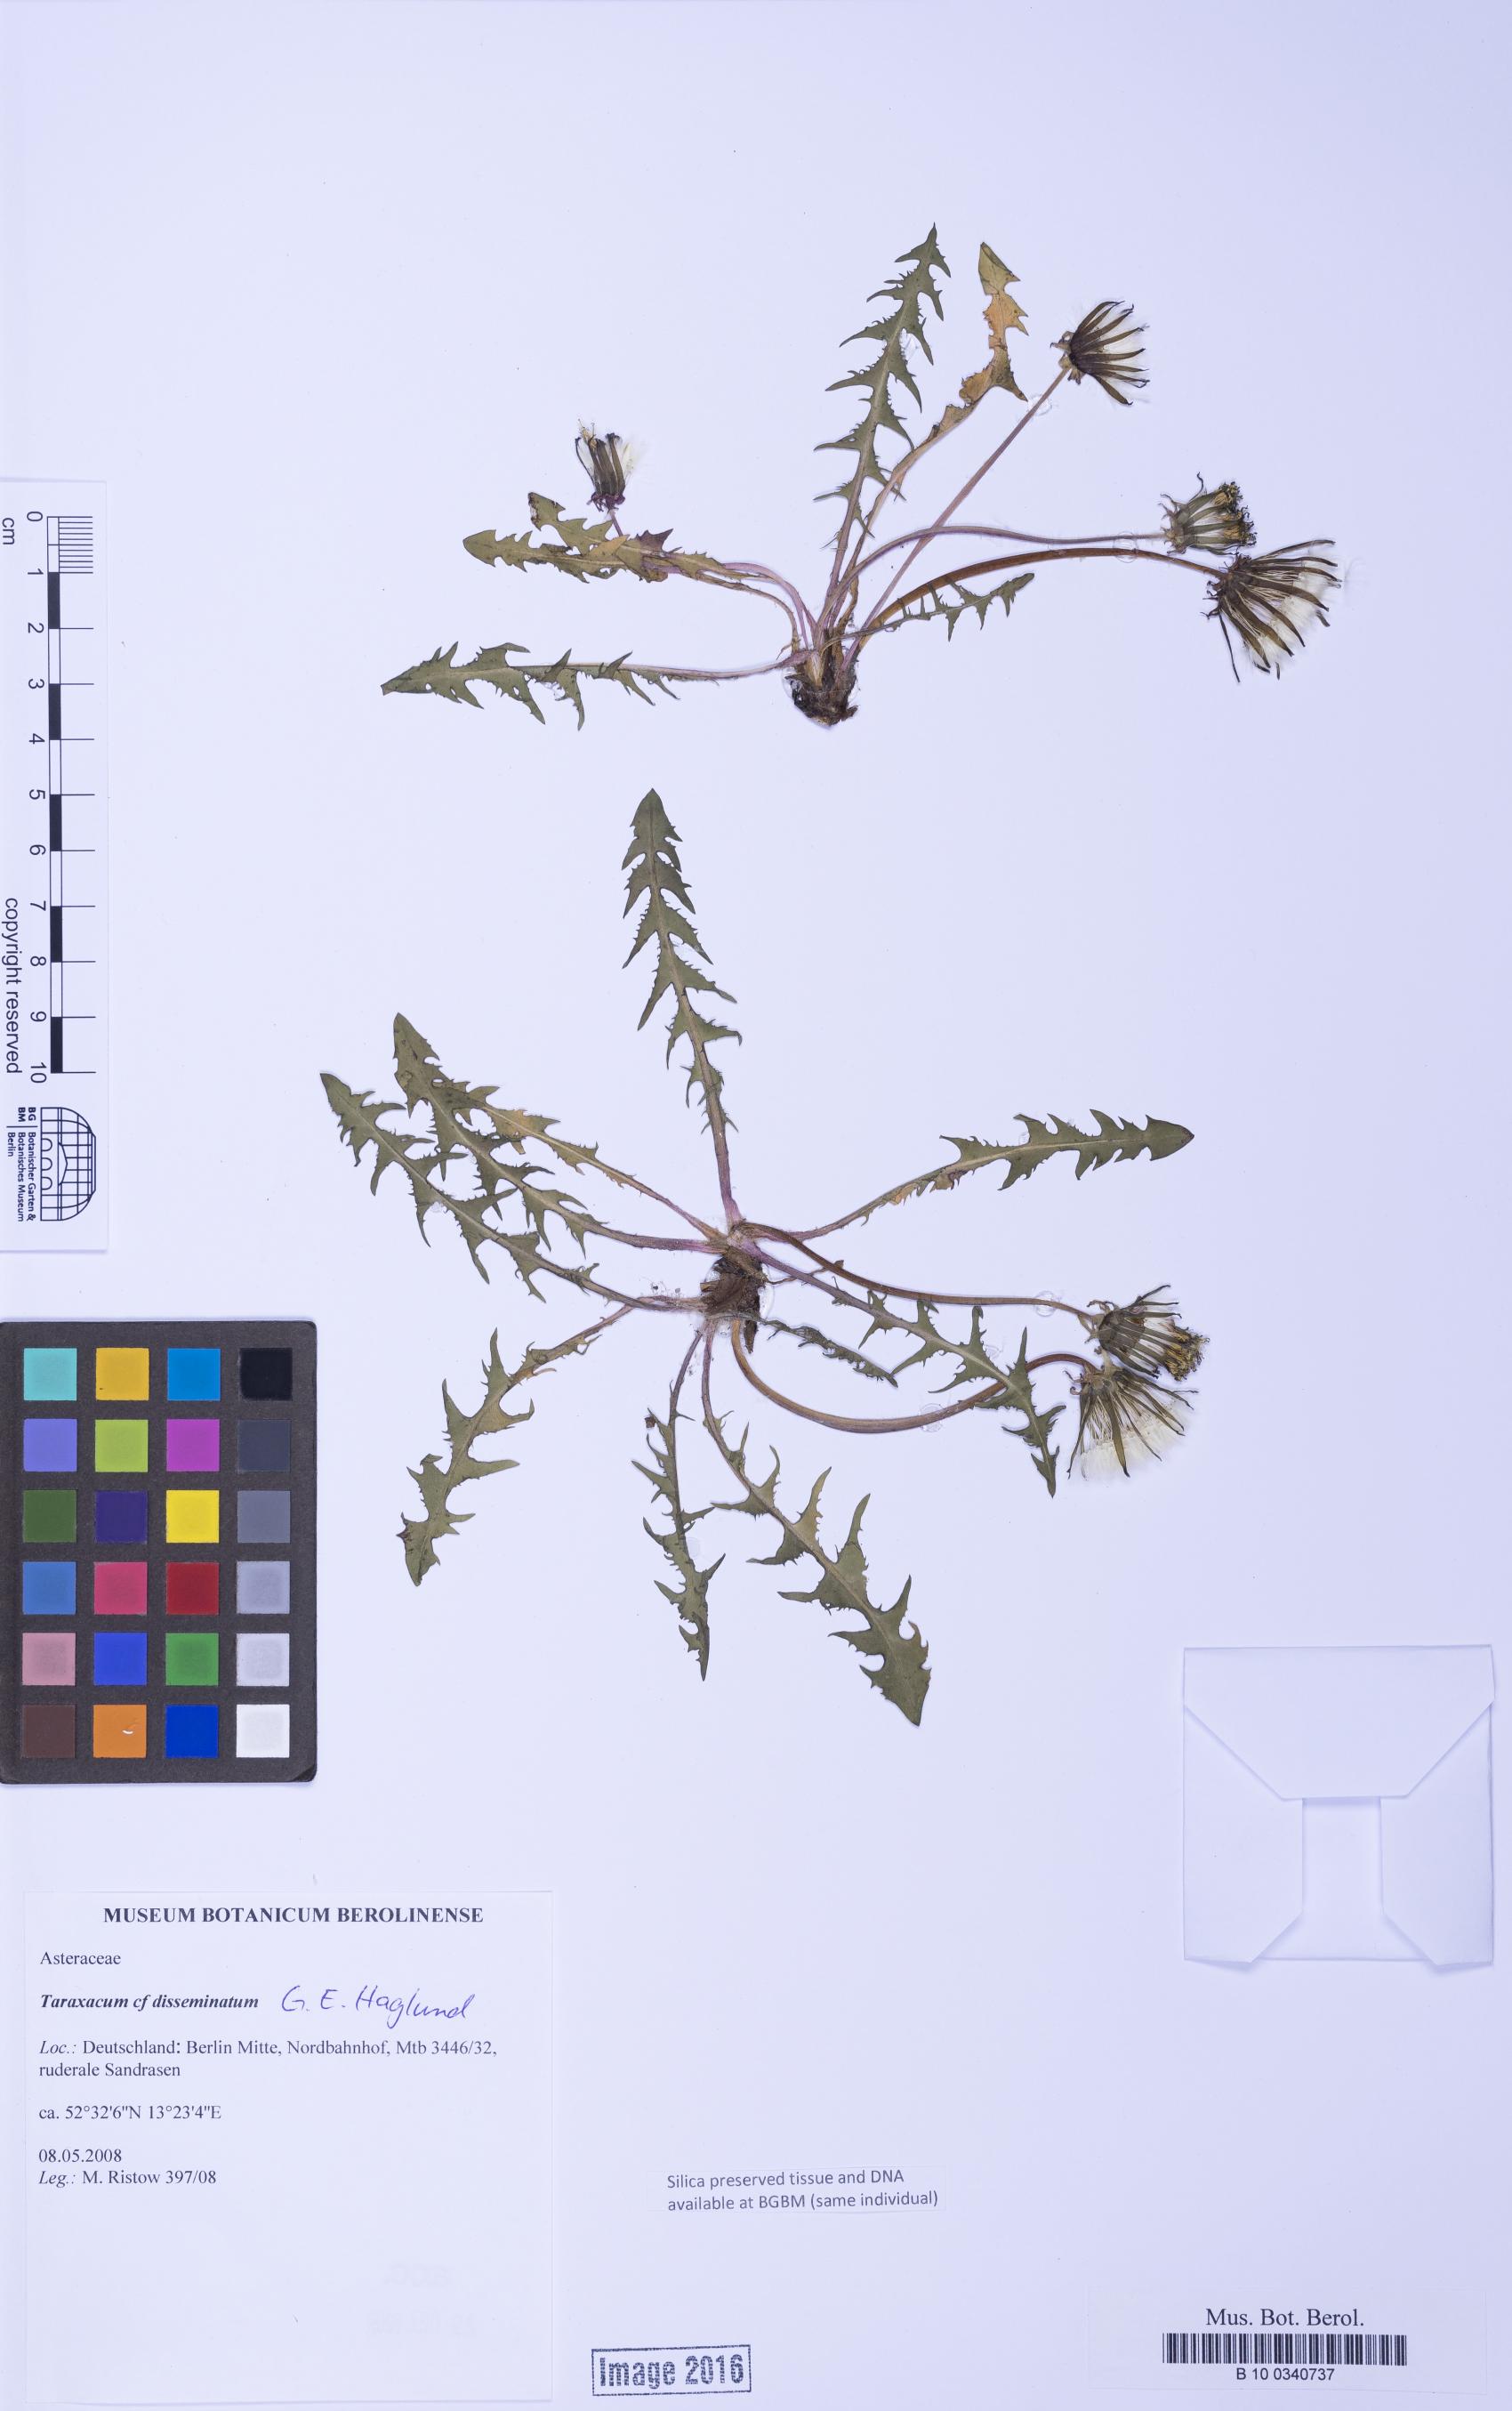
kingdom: Plantae
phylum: Tracheophyta
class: Magnoliopsida
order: Asterales
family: Asteraceae
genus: Taraxacum
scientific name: Taraxacum disseminatum
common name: Golden-fruited dandelion
